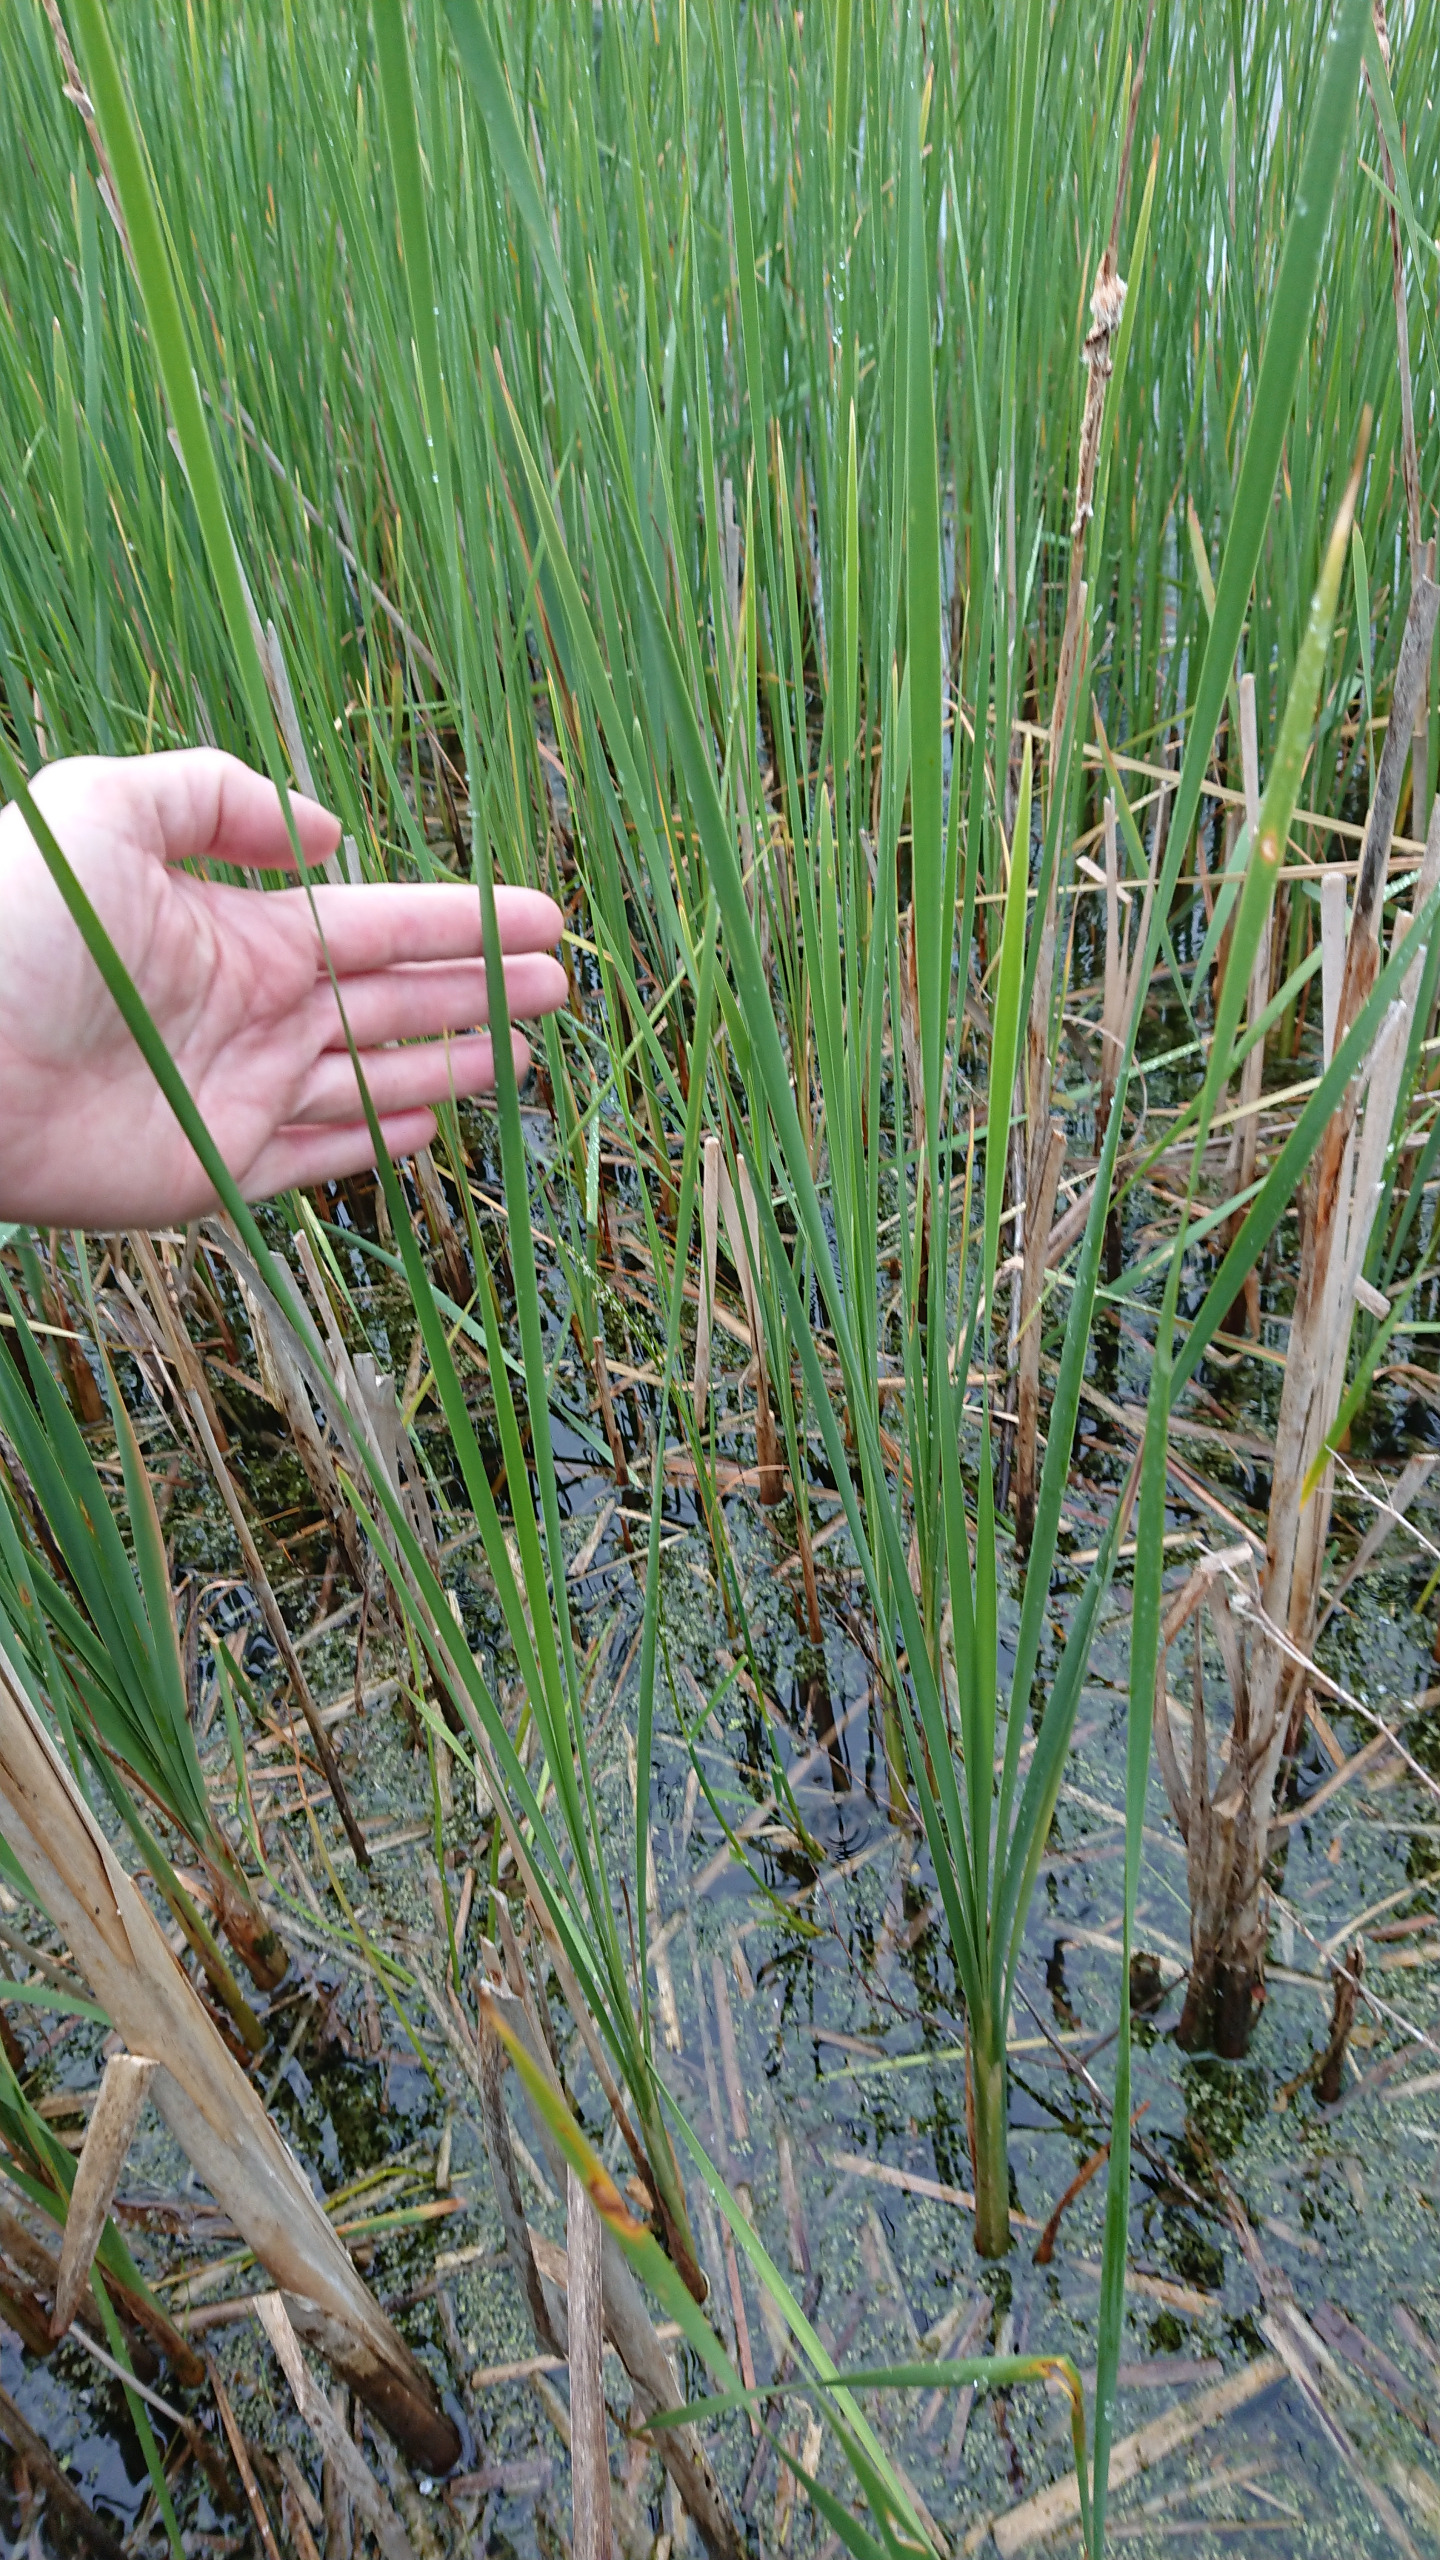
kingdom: Plantae
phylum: Tracheophyta
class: Liliopsida
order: Poales
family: Typhaceae
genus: Typha
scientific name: Typha angustifolia
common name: Smalbladet dunhammer
